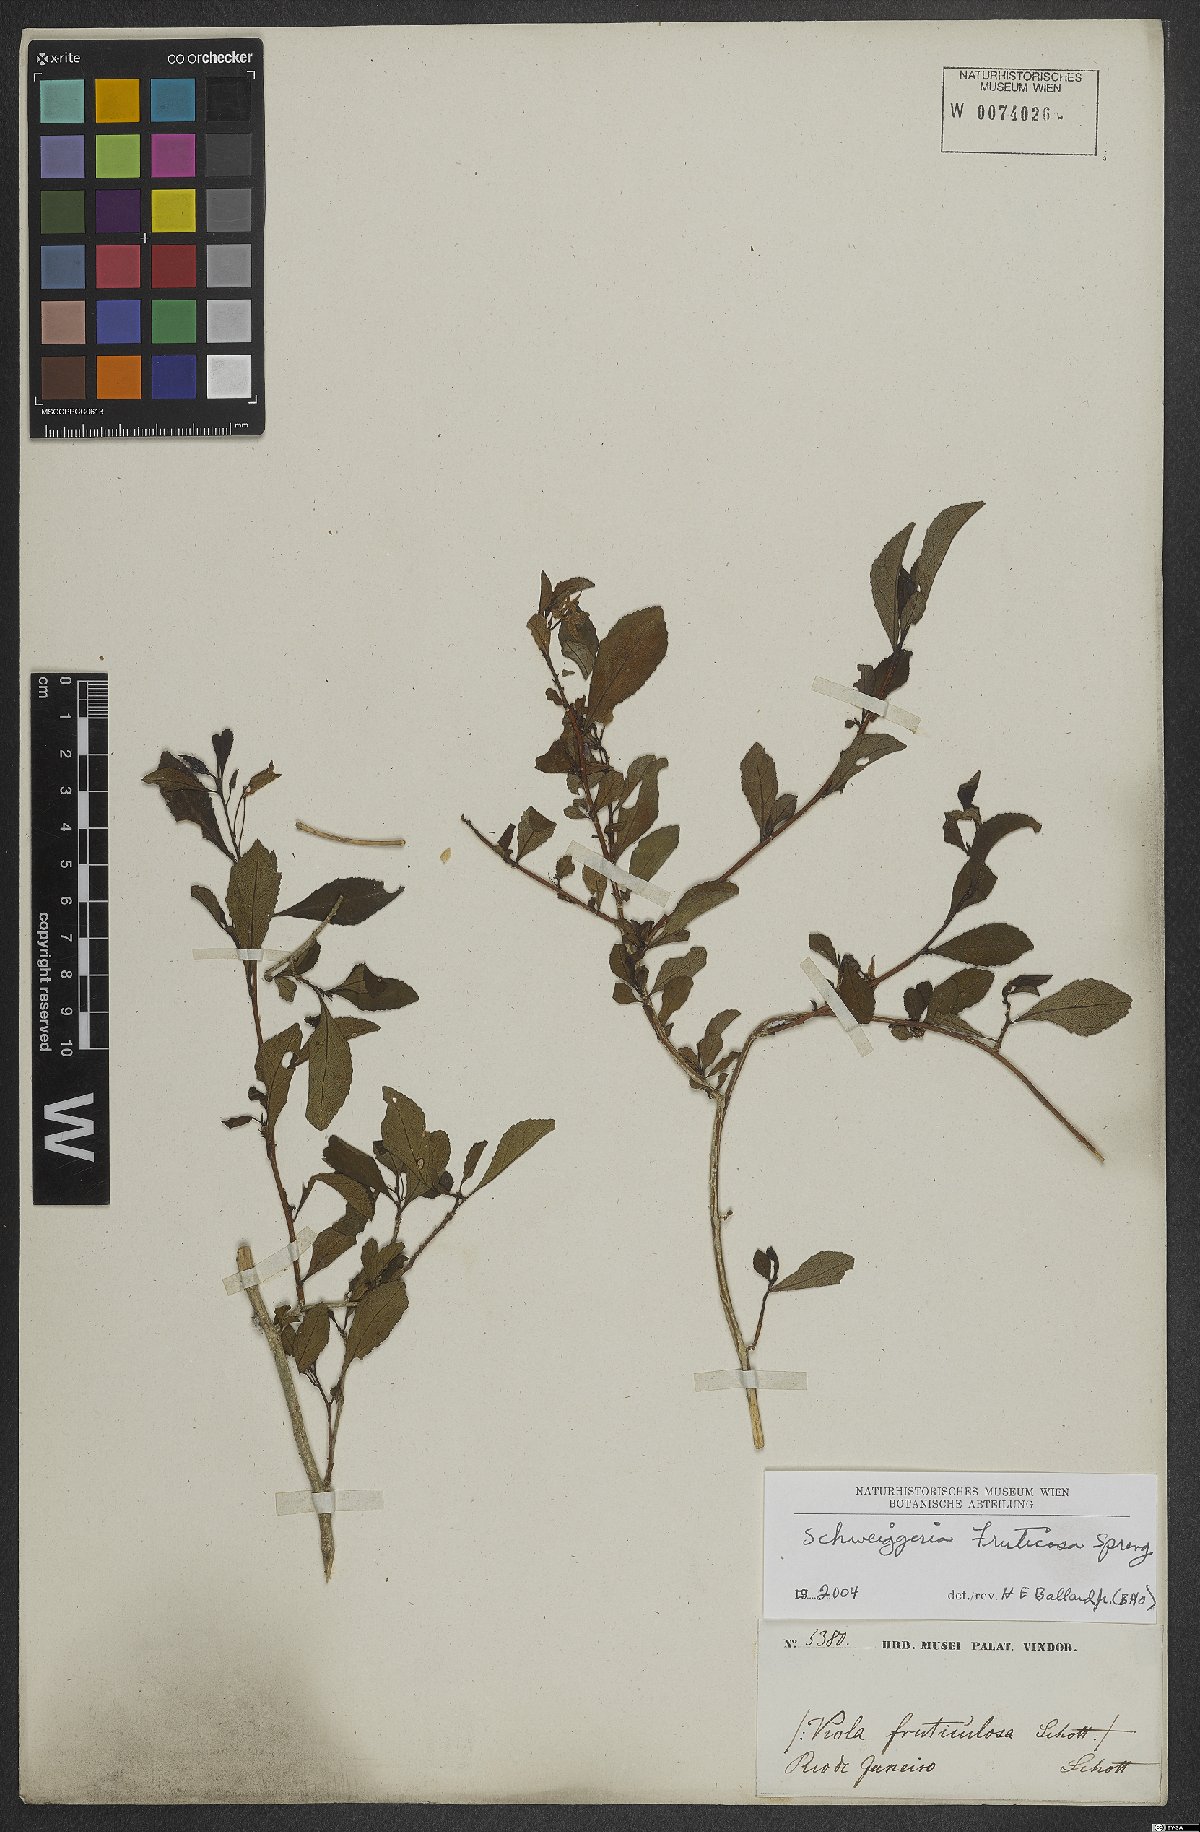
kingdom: Plantae
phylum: Tracheophyta
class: Magnoliopsida
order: Malpighiales
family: Violaceae
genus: Schweiggeria
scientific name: Schweiggeria fruticosa
